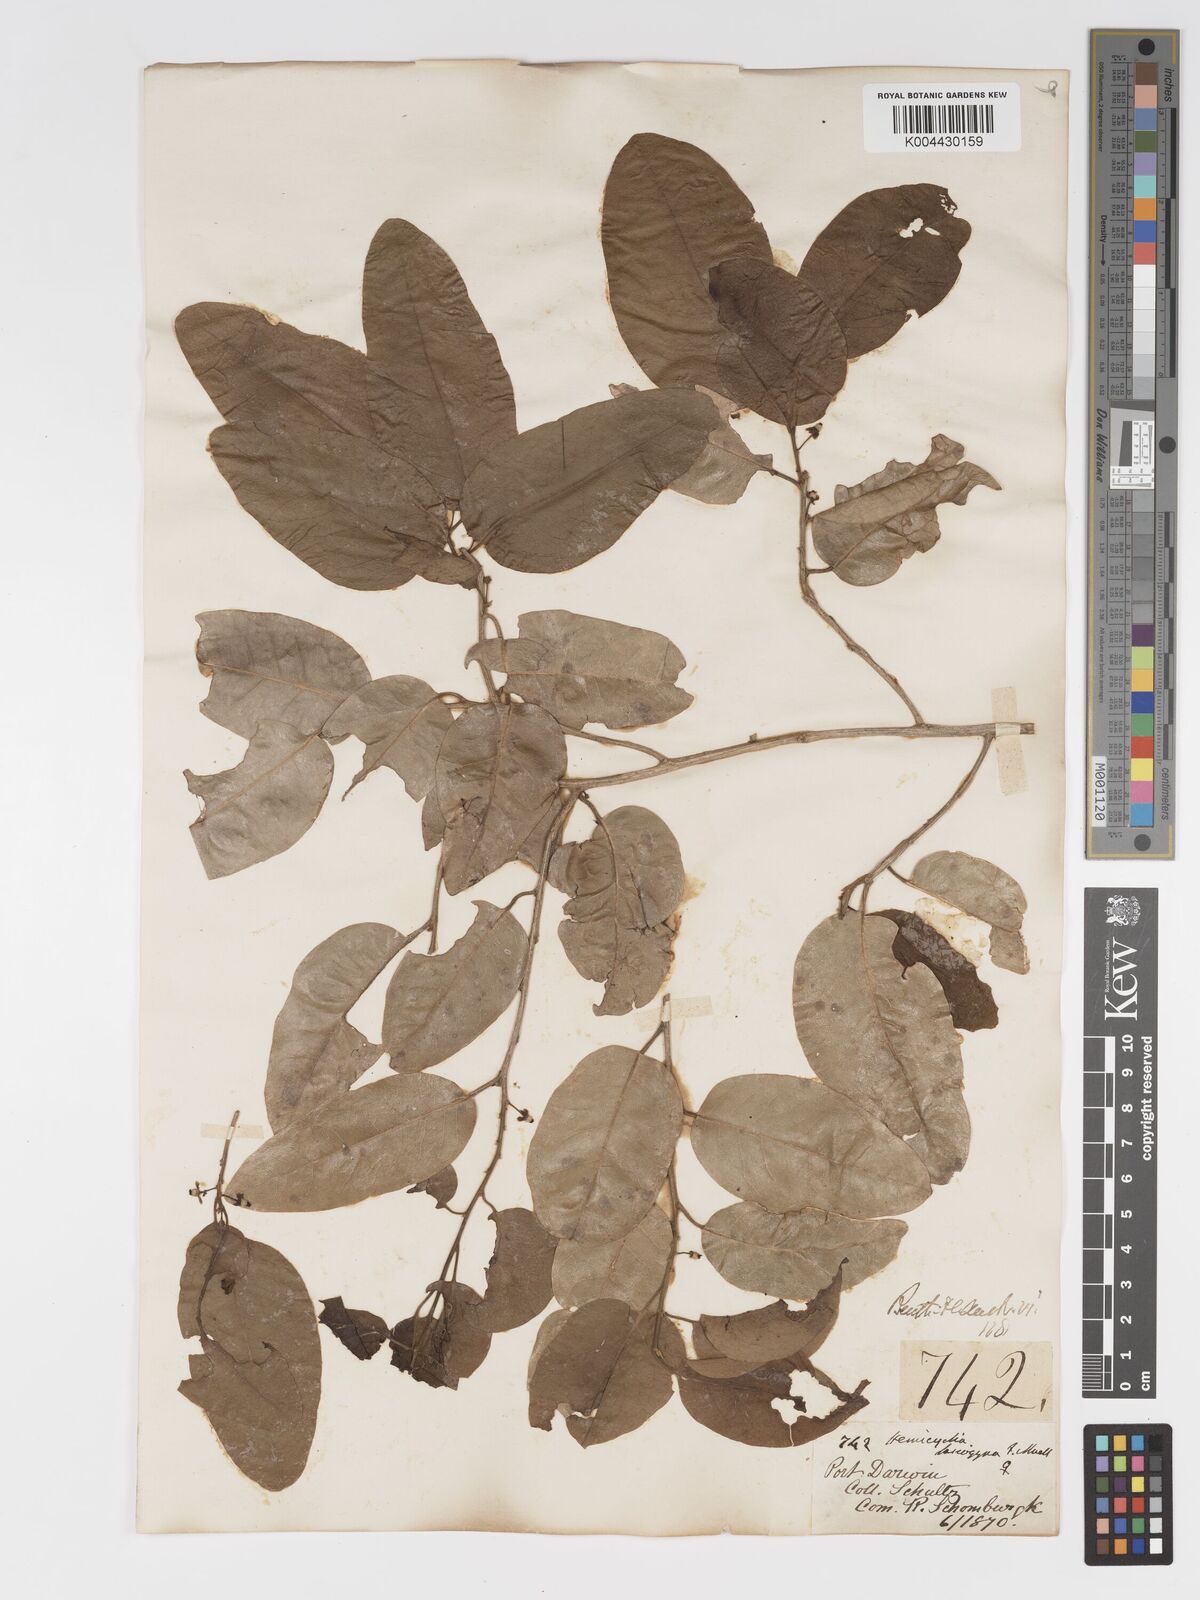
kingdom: Plantae
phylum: Tracheophyta
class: Magnoliopsida
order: Malpighiales
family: Putranjivaceae
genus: Drypetes
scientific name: Drypetes deplanchei
